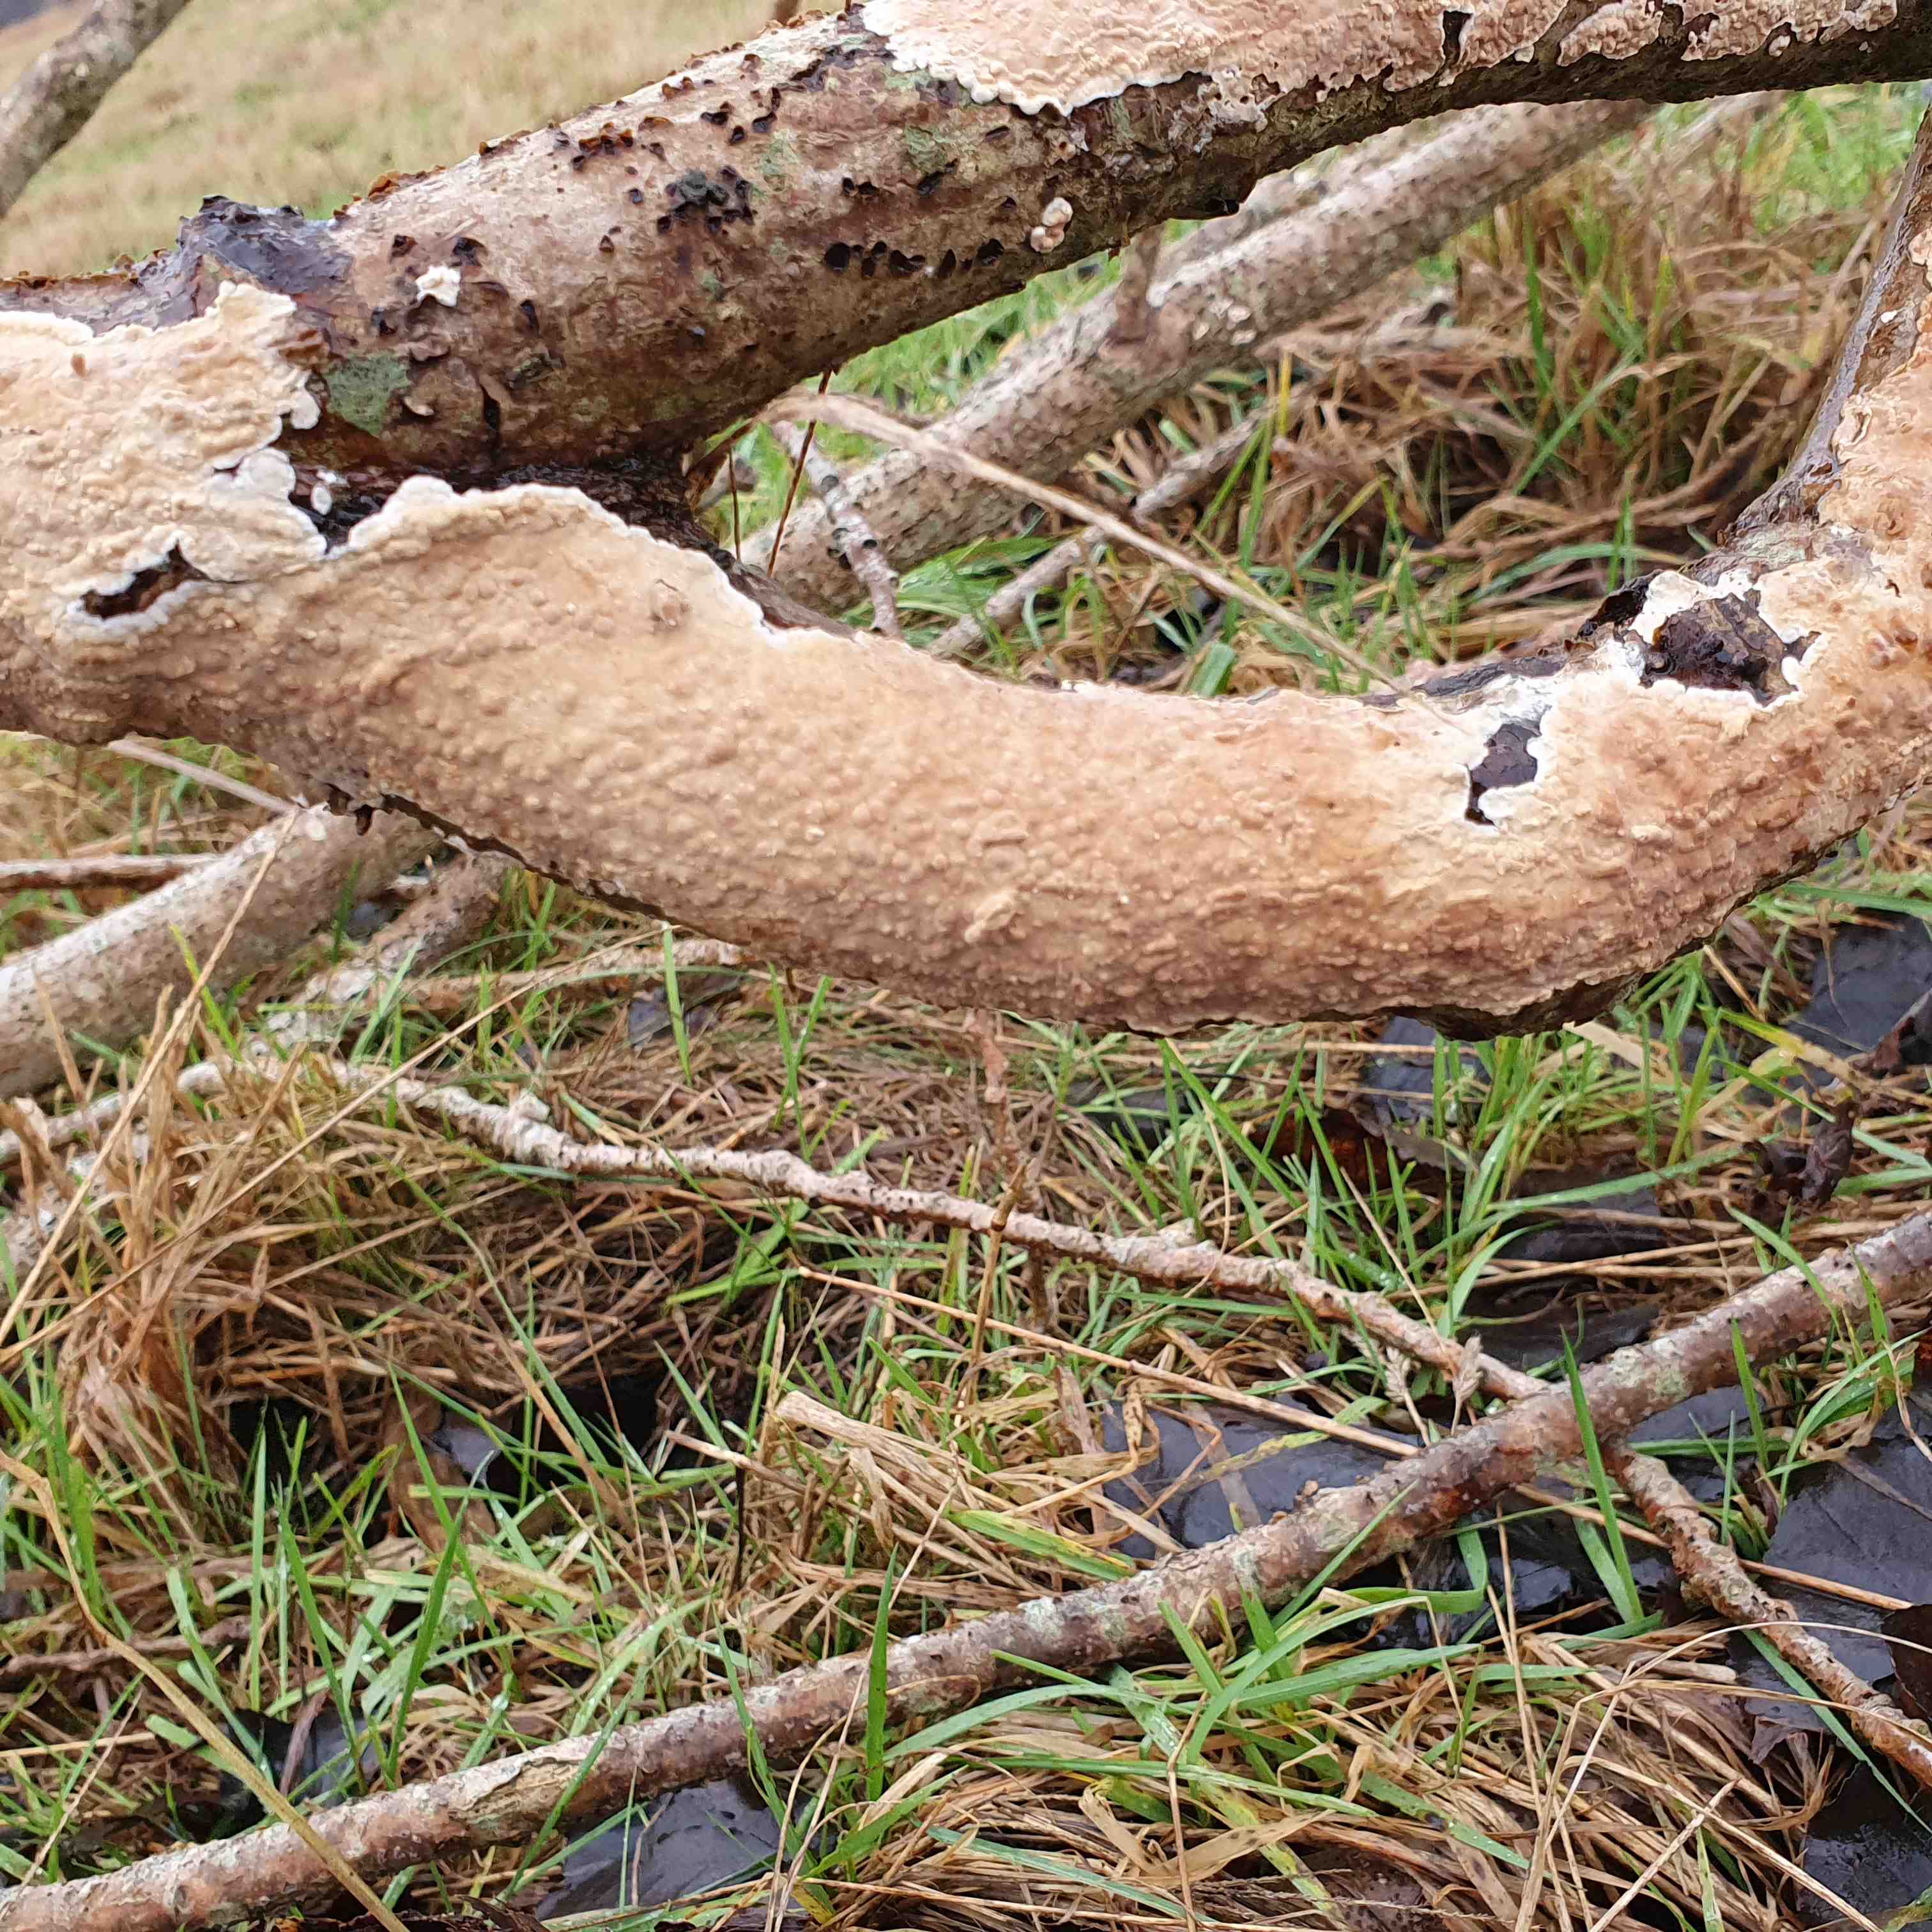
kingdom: Fungi
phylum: Basidiomycota
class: Agaricomycetes
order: Agaricales
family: Physalacriaceae
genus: Cylindrobasidium
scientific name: Cylindrobasidium evolvens
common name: sprækkehinde
